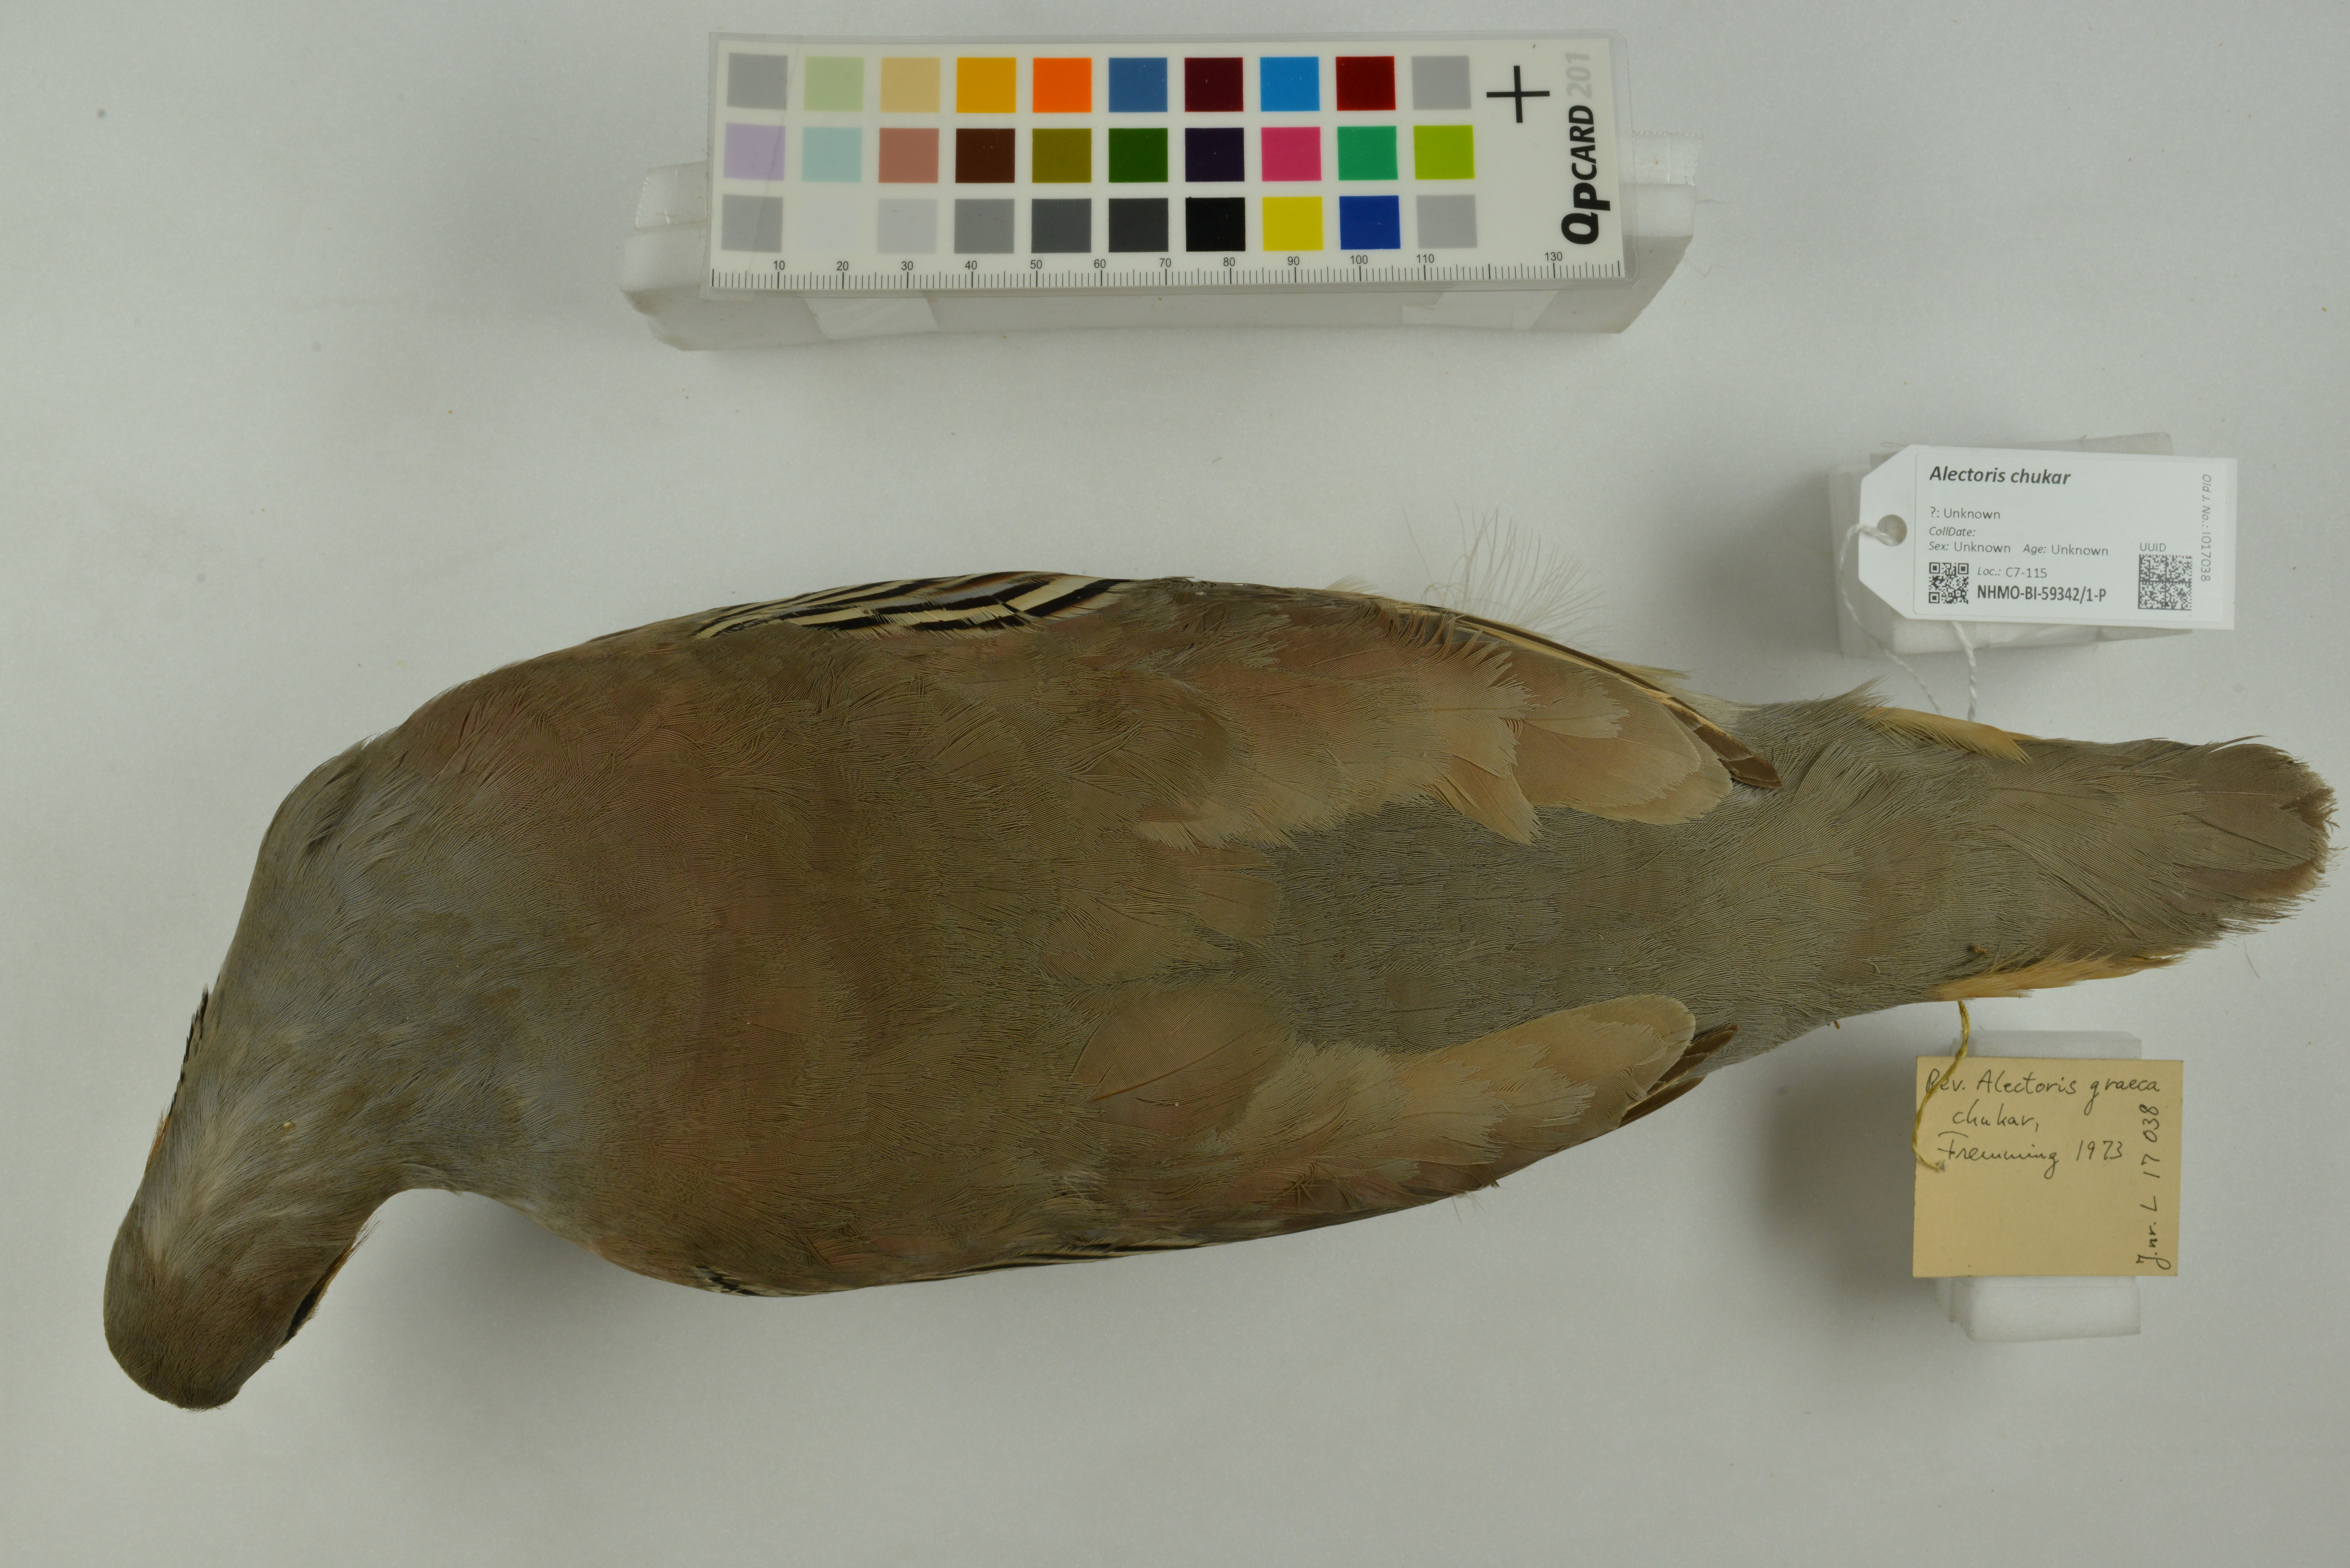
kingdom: Animalia
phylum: Chordata
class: Aves
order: Galliformes
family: Phasianidae
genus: Alectoris
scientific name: Alectoris chukar
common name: Chukar
